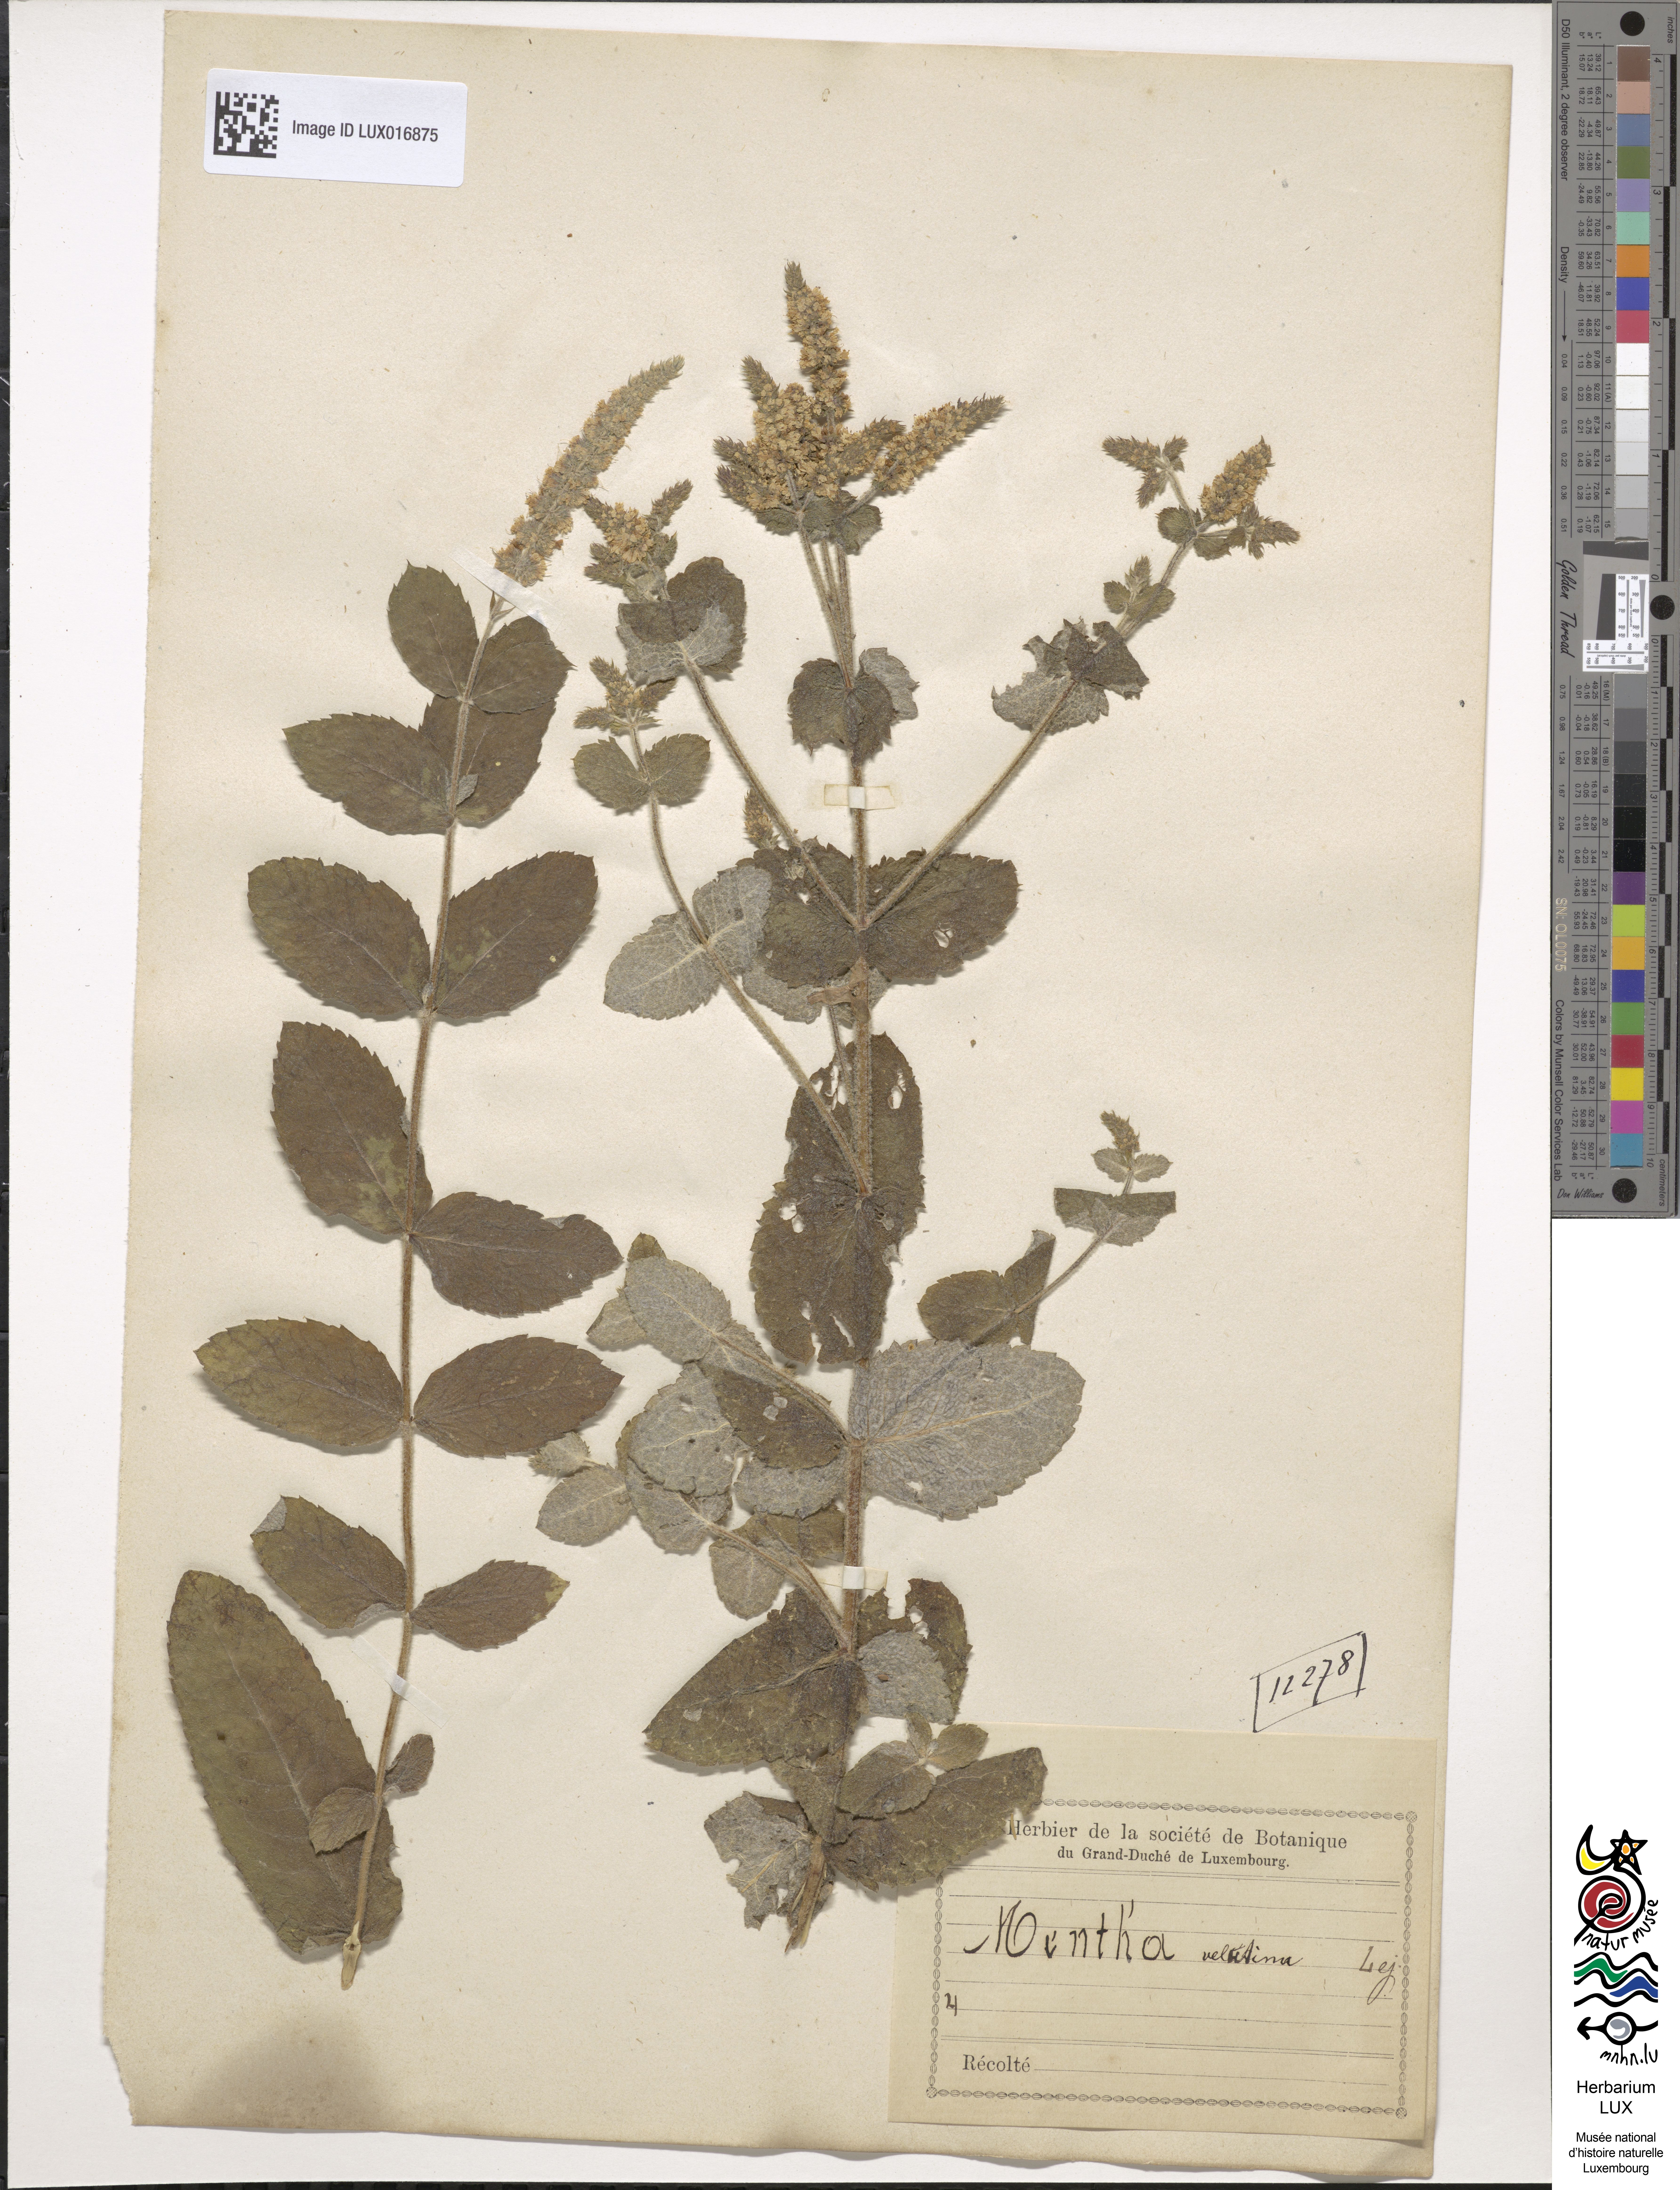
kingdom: Plantae
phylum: Tracheophyta
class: Magnoliopsida
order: Lamiales
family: Lamiaceae
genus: Mentha
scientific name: Mentha rotundifolia
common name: Bigleaf mint
